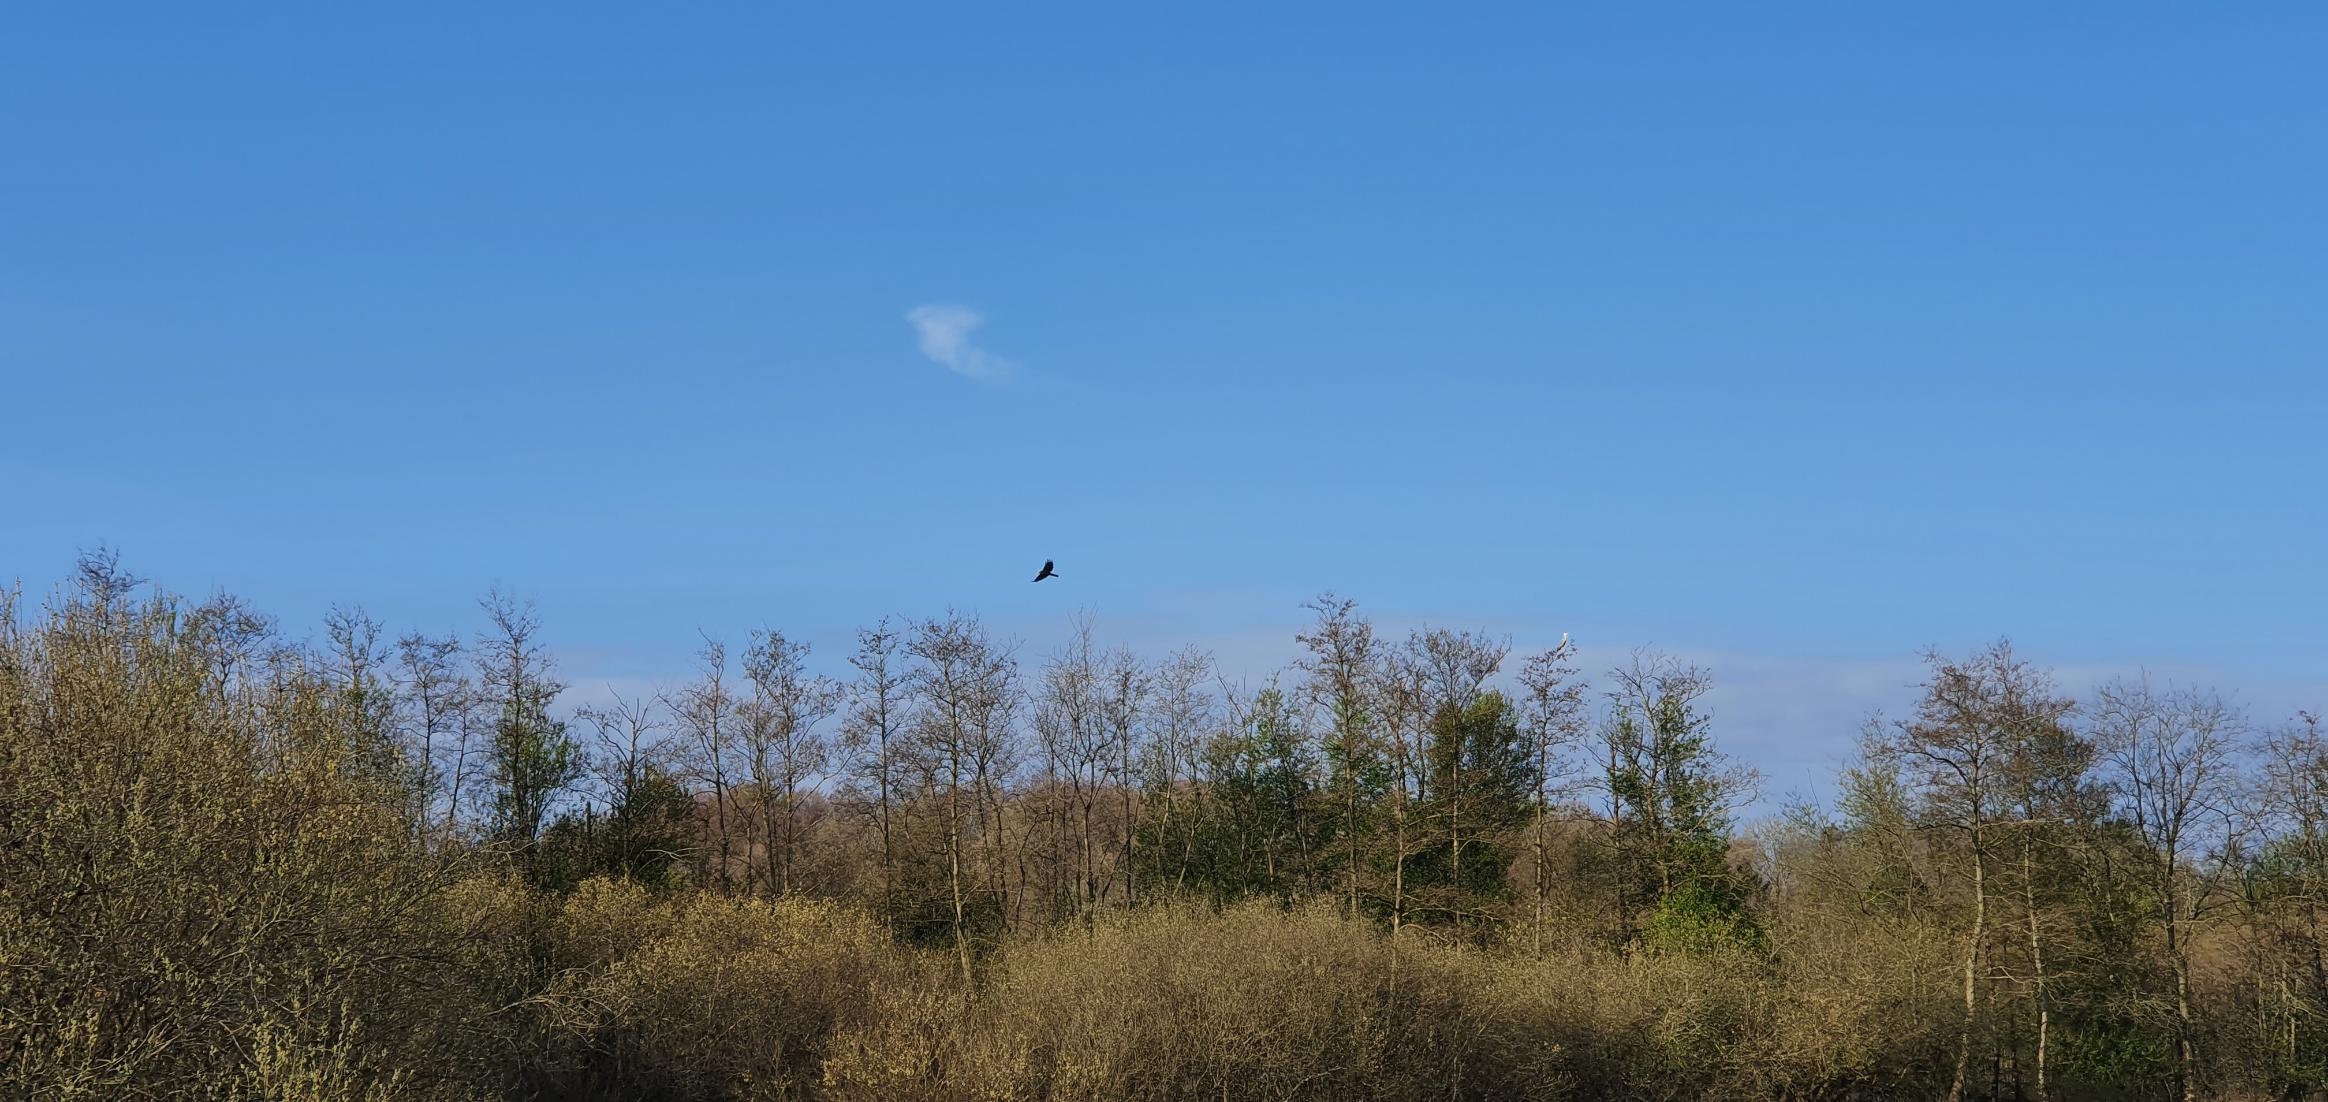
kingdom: Animalia
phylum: Chordata
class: Aves
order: Accipitriformes
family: Accipitridae
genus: Circus
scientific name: Circus aeruginosus
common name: Rørhøg
